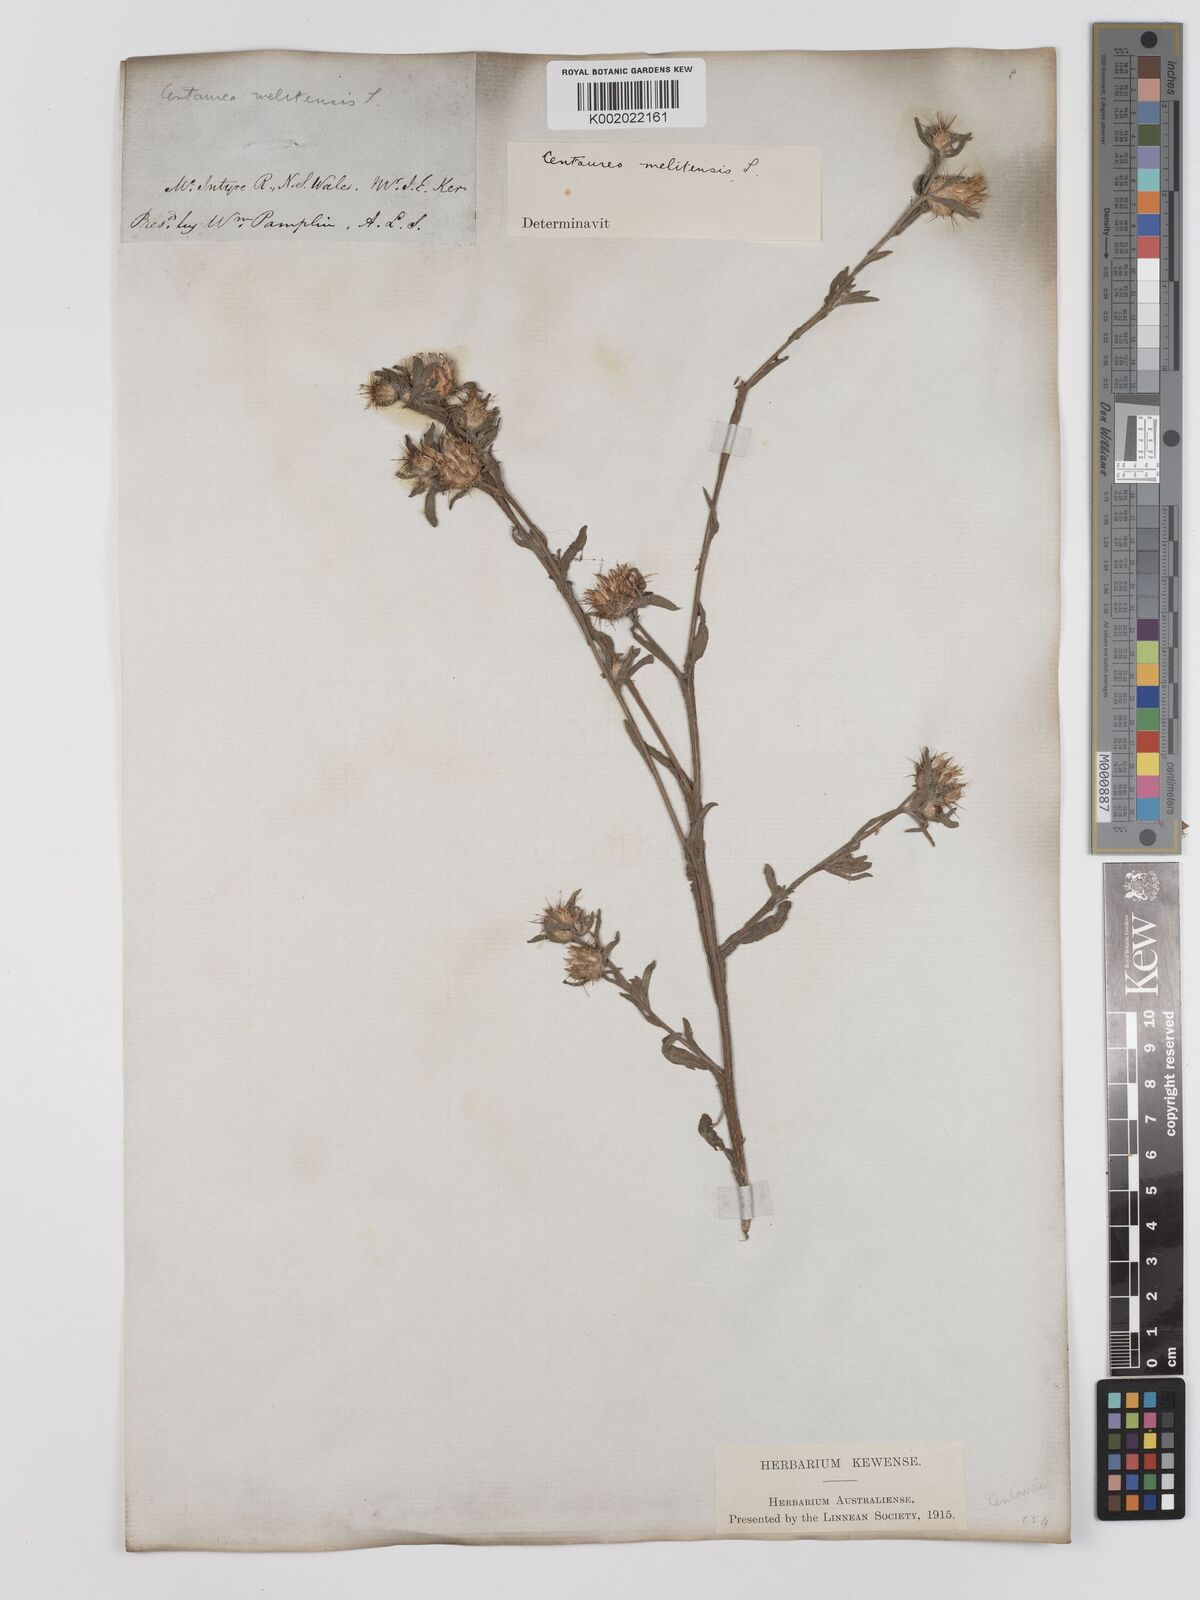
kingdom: Plantae
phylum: Tracheophyta
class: Magnoliopsida
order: Asterales
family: Asteraceae
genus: Centaurea
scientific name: Centaurea melitensis
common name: Maltese star-thistle
